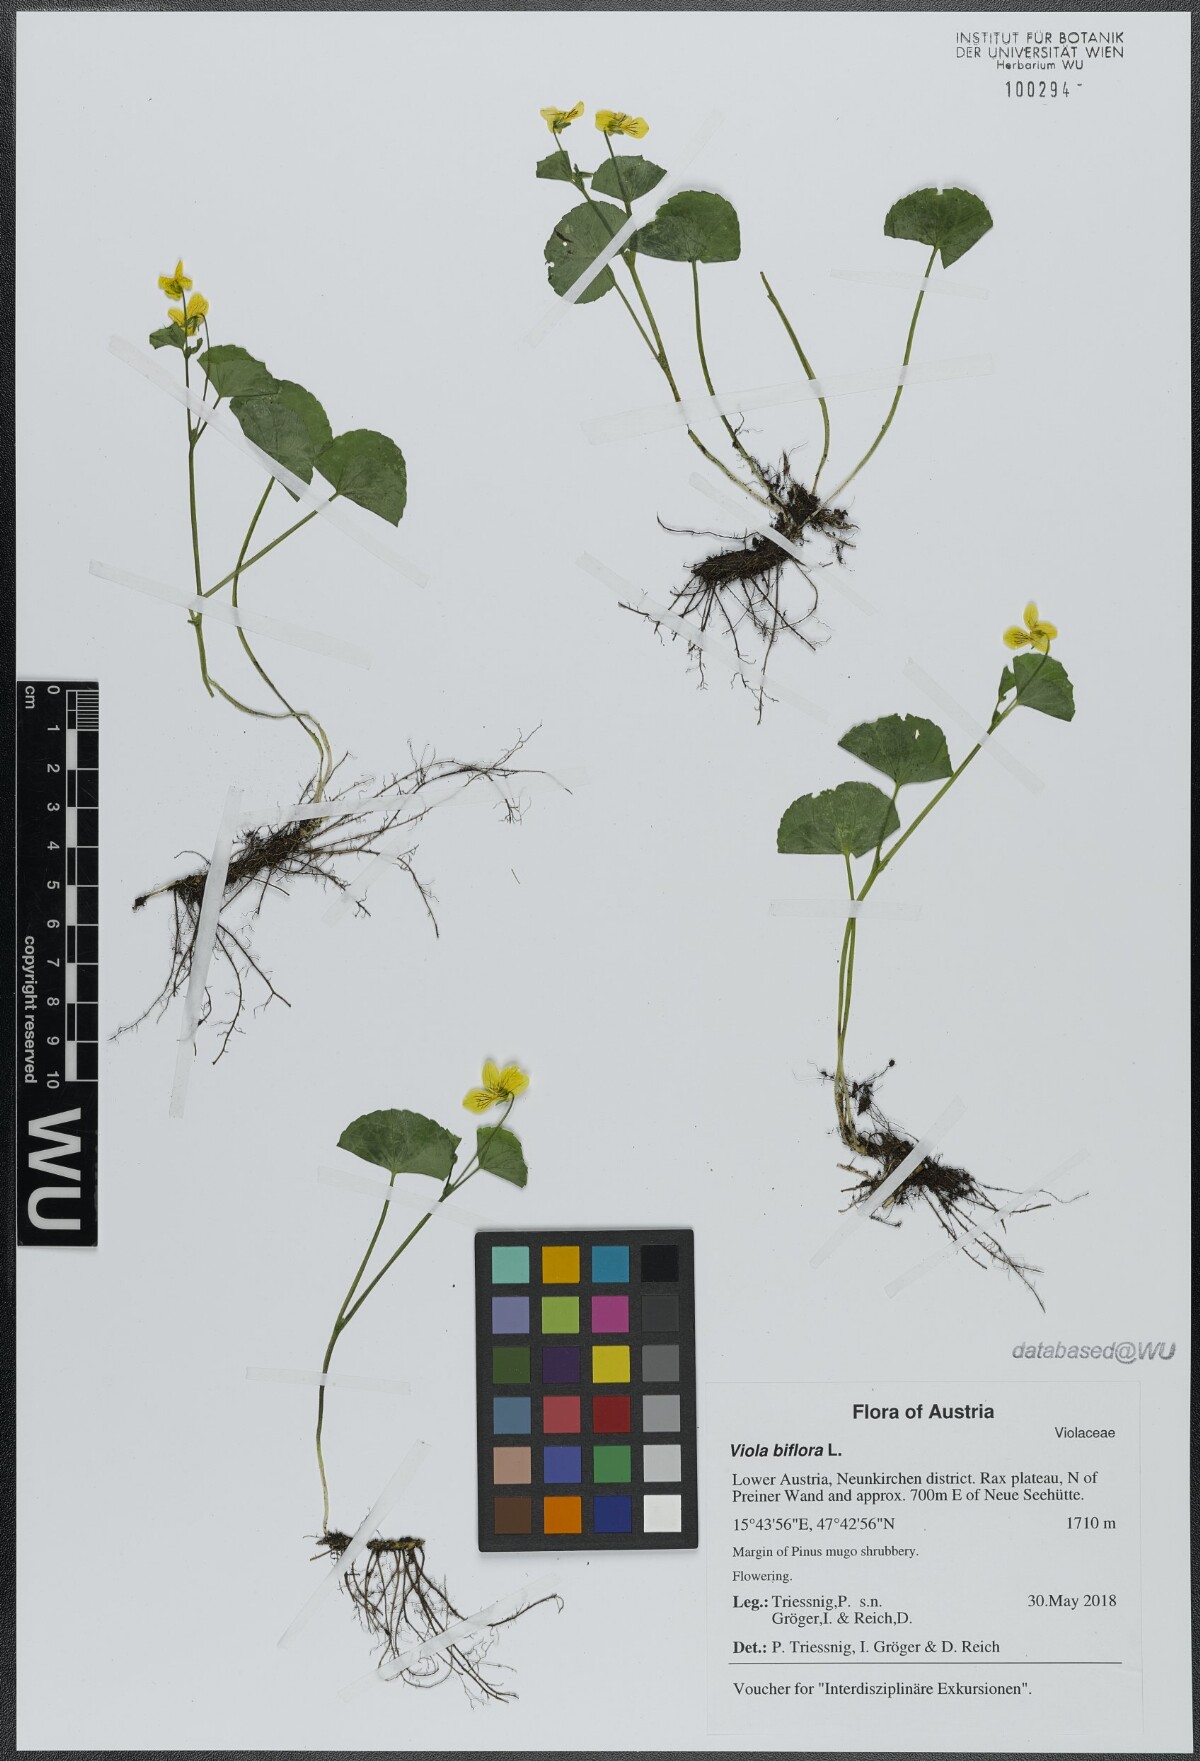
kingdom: Plantae
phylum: Tracheophyta
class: Magnoliopsida
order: Malpighiales
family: Violaceae
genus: Viola
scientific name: Viola biflora
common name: Alpine yellow violet
